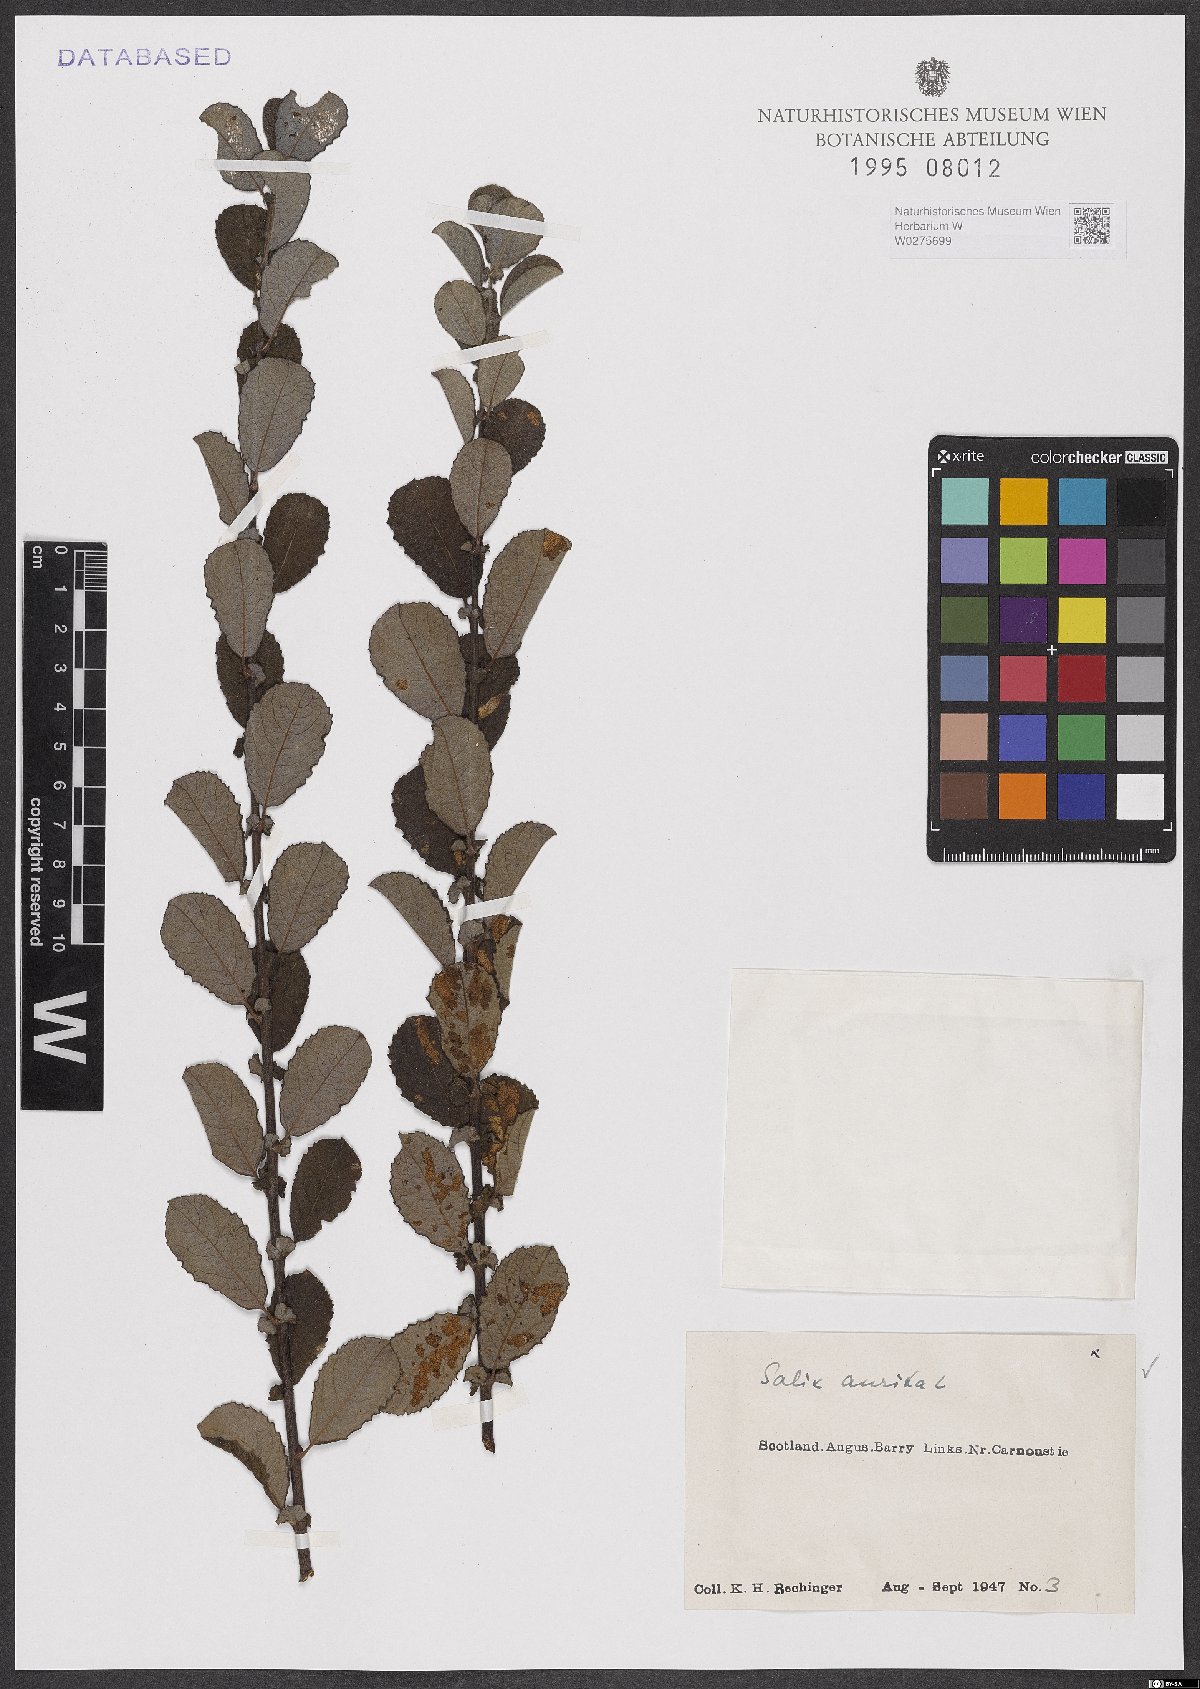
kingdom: Plantae
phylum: Tracheophyta
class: Magnoliopsida
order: Malpighiales
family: Salicaceae
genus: Salix
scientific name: Salix aurita
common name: Eared willow
